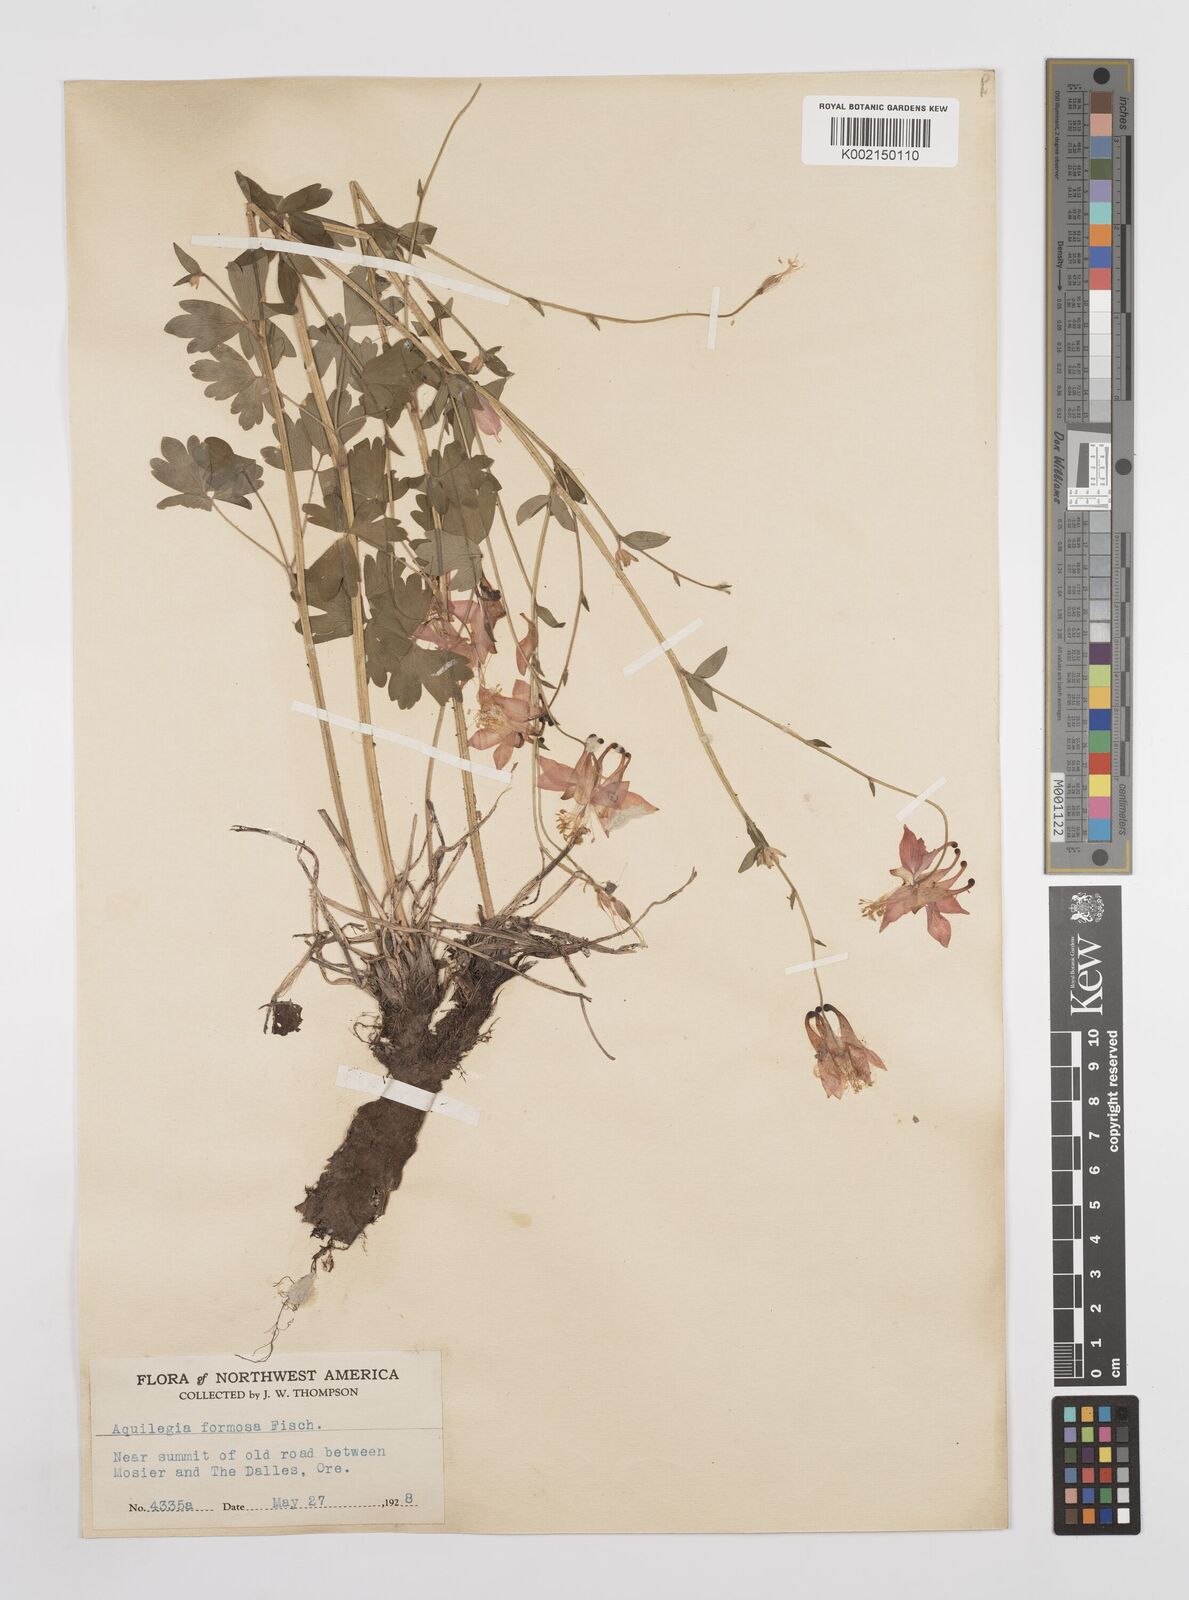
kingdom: Plantae
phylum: Tracheophyta
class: Magnoliopsida
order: Ranunculales
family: Ranunculaceae
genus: Aquilegia
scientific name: Aquilegia
